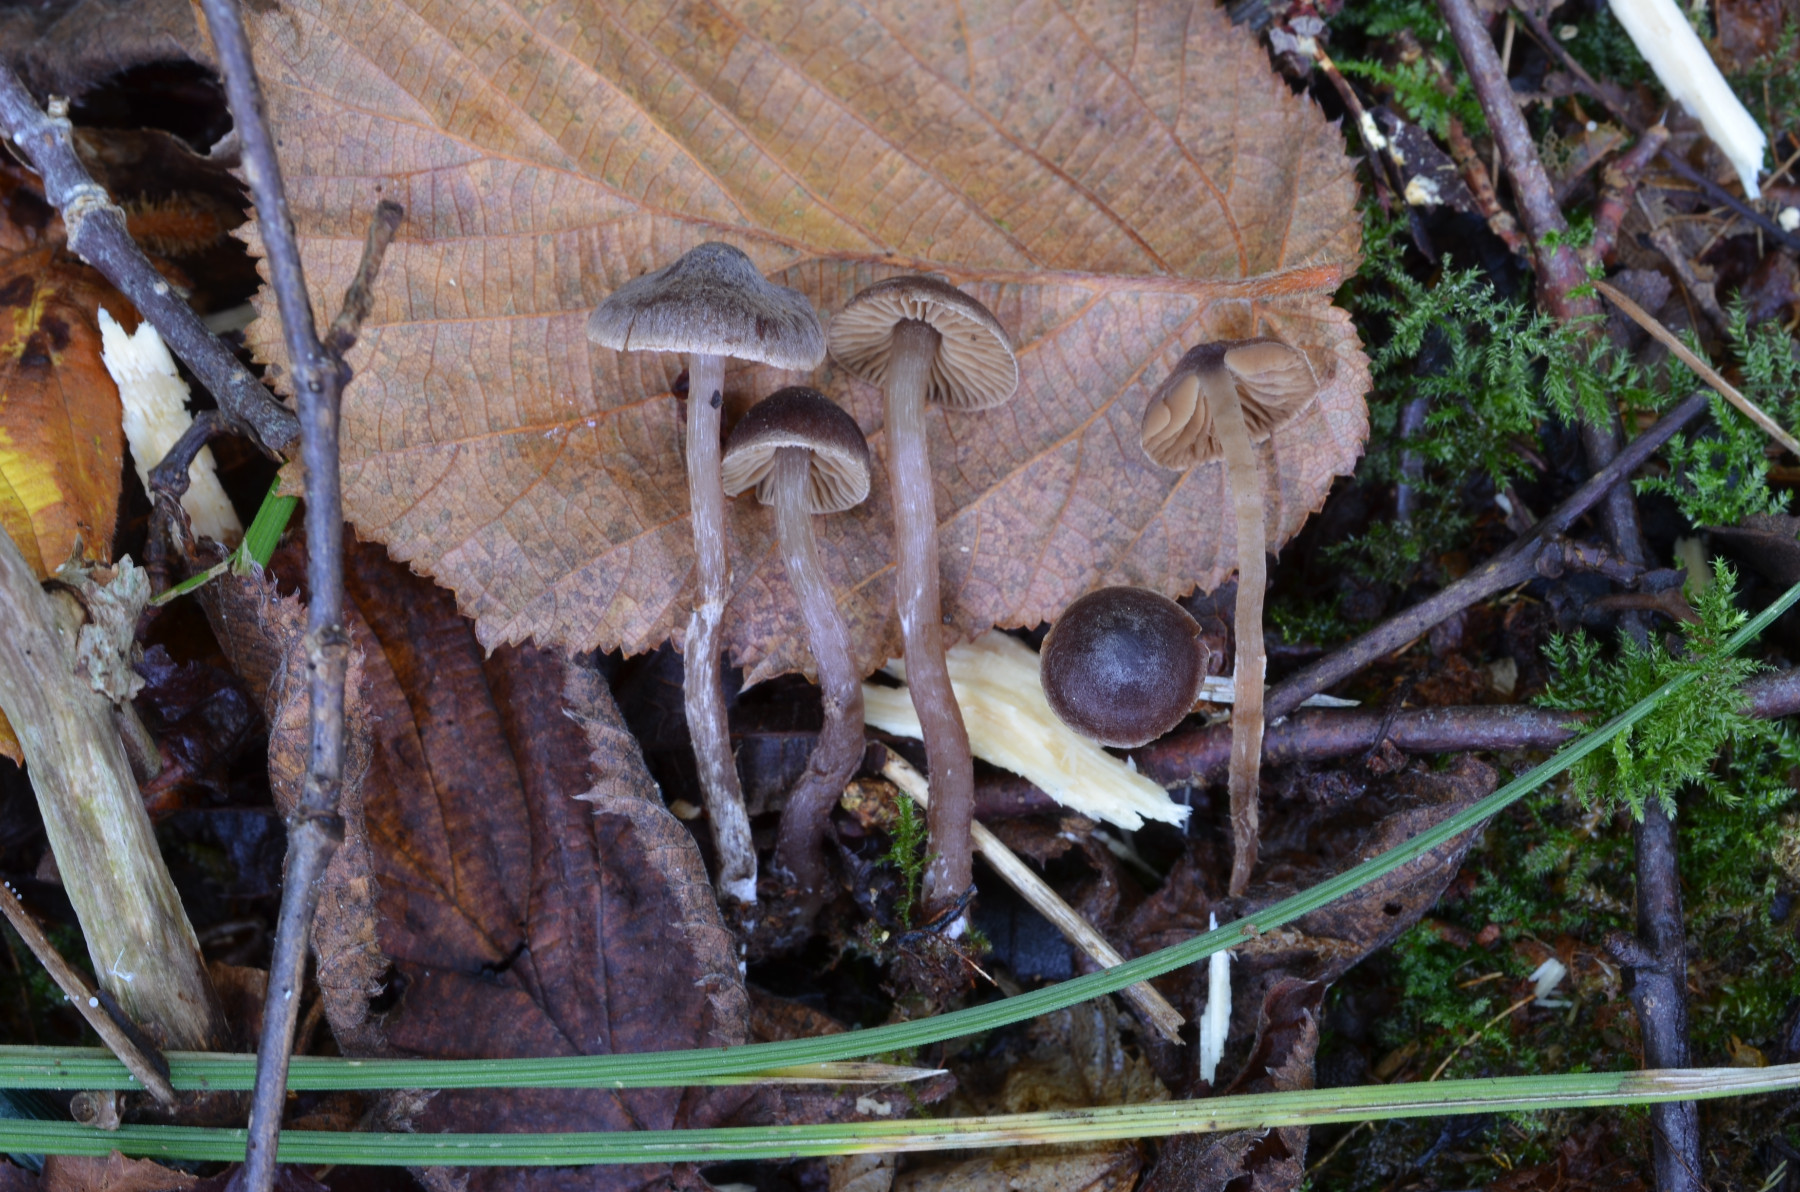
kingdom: Fungi
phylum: Basidiomycota
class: Agaricomycetes
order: Agaricales
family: Cortinariaceae
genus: Cortinarius
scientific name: Cortinarius fulvopaludosus
